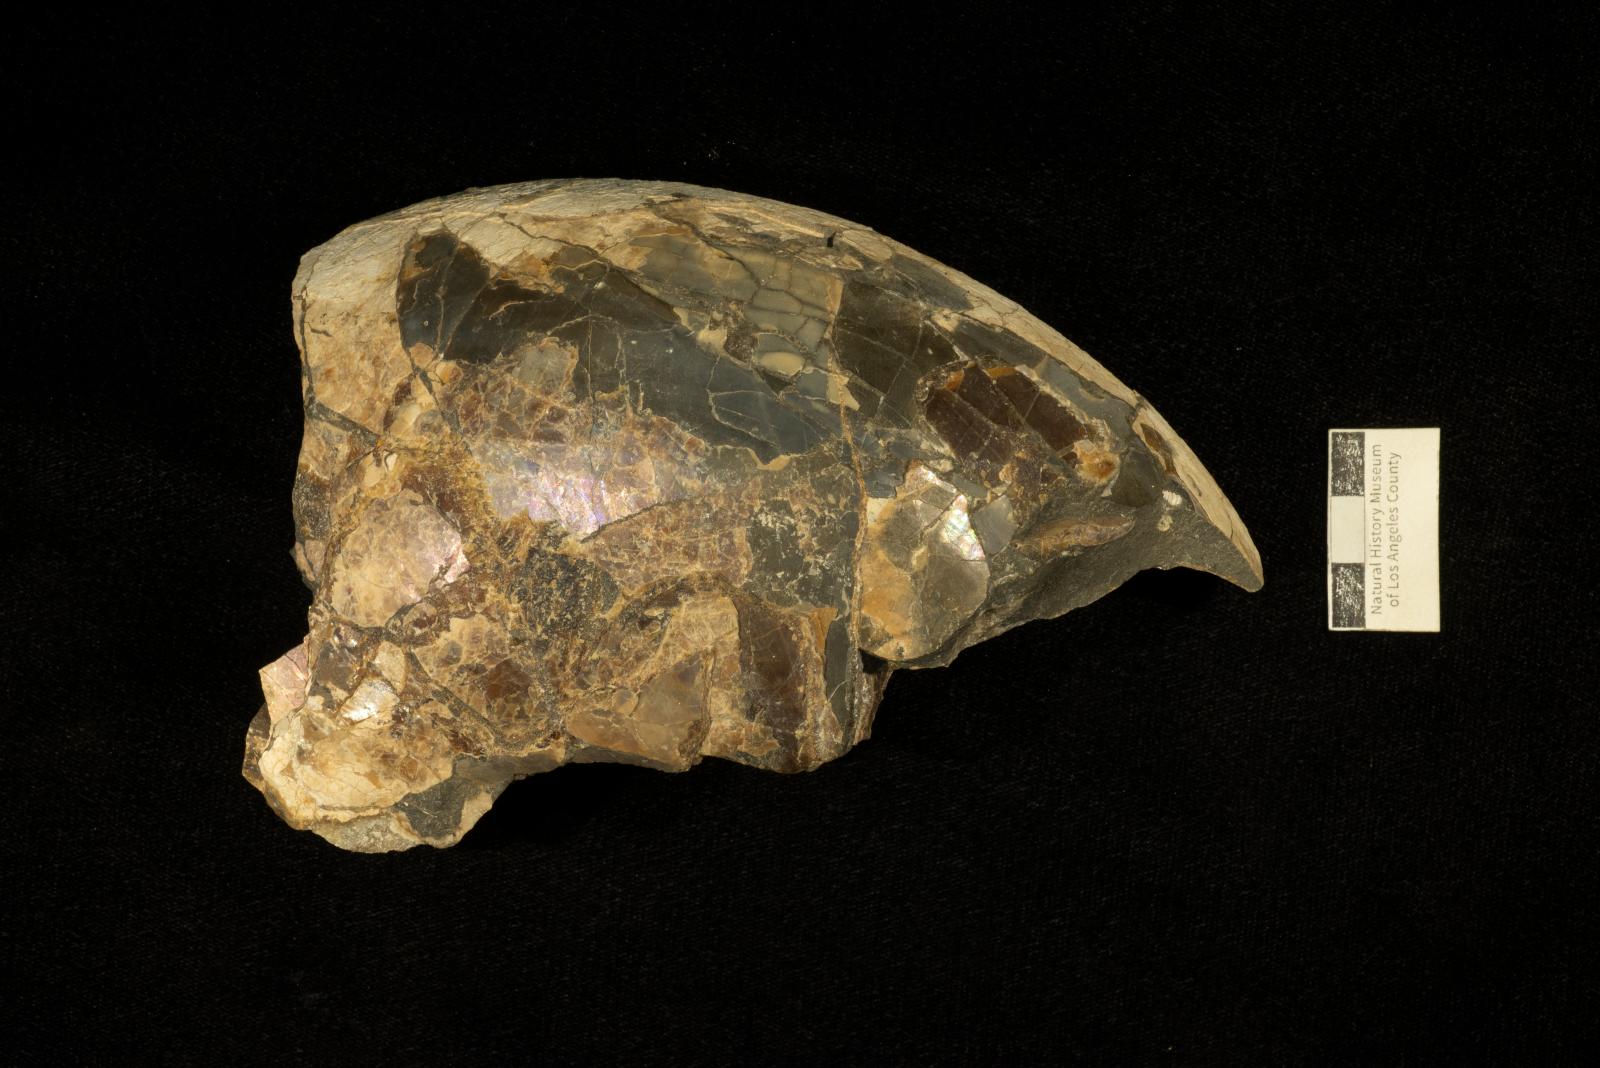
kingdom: Animalia
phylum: Mollusca
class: Cephalopoda
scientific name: Cephalopoda
